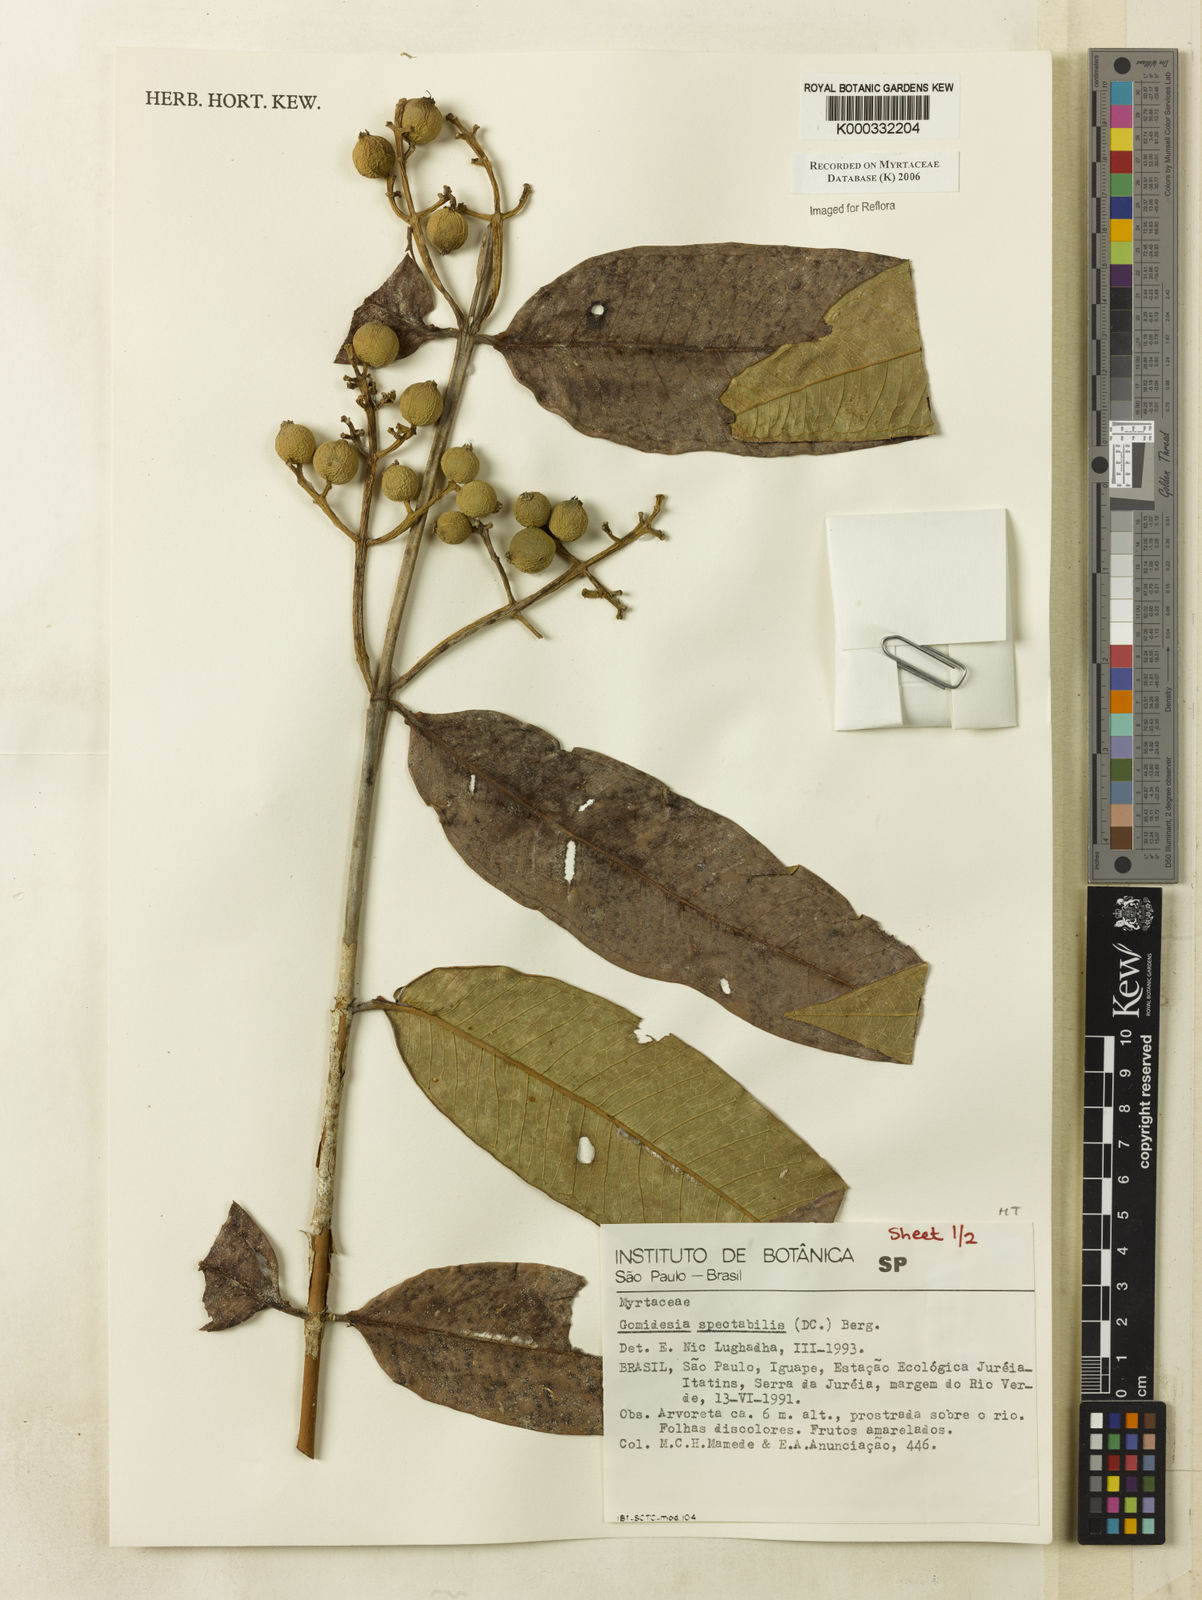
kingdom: Plantae
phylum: Tracheophyta
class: Magnoliopsida
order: Myrtales
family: Myrtaceae
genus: Myrcia
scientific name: Myrcia spectabilis
